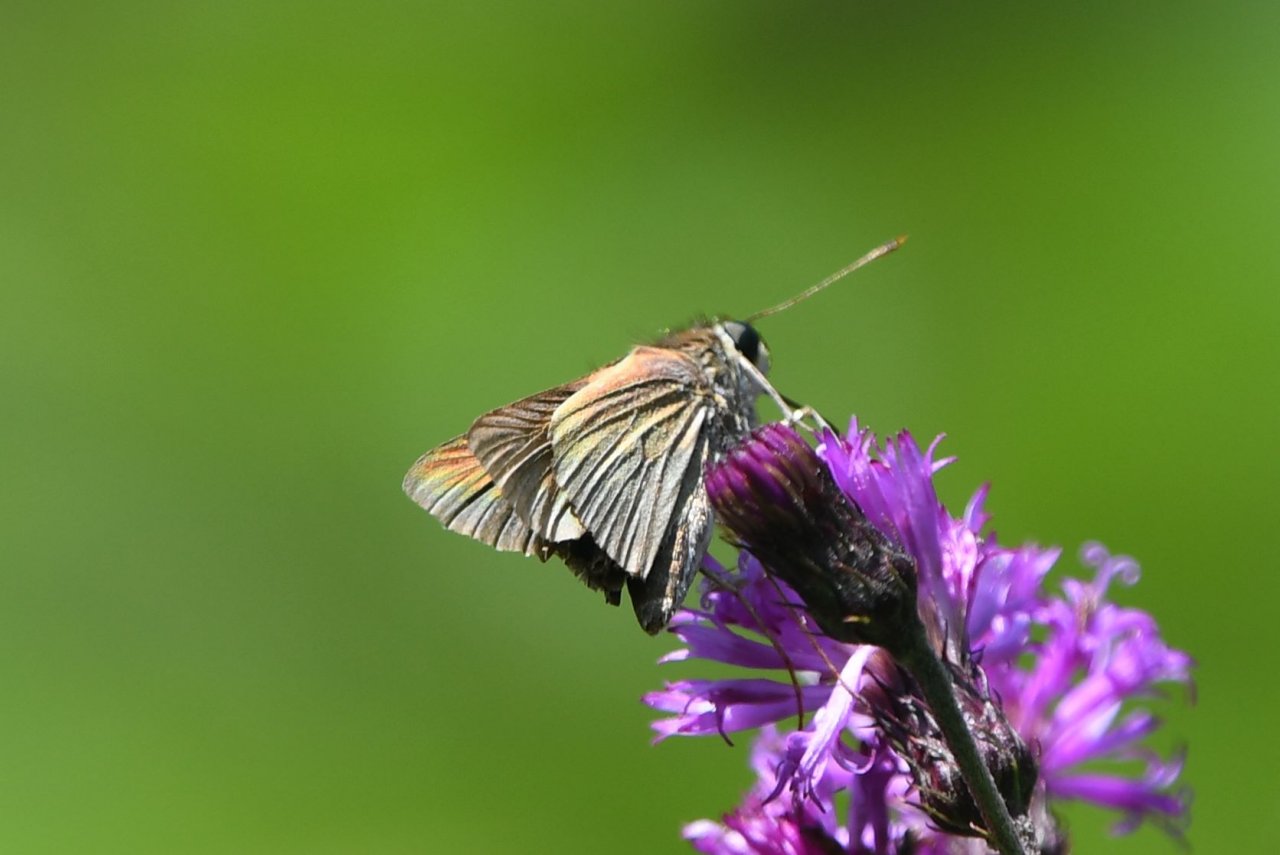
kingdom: Animalia
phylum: Arthropoda
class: Insecta
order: Lepidoptera
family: Hesperiidae
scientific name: Hesperiidae
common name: Skippers
